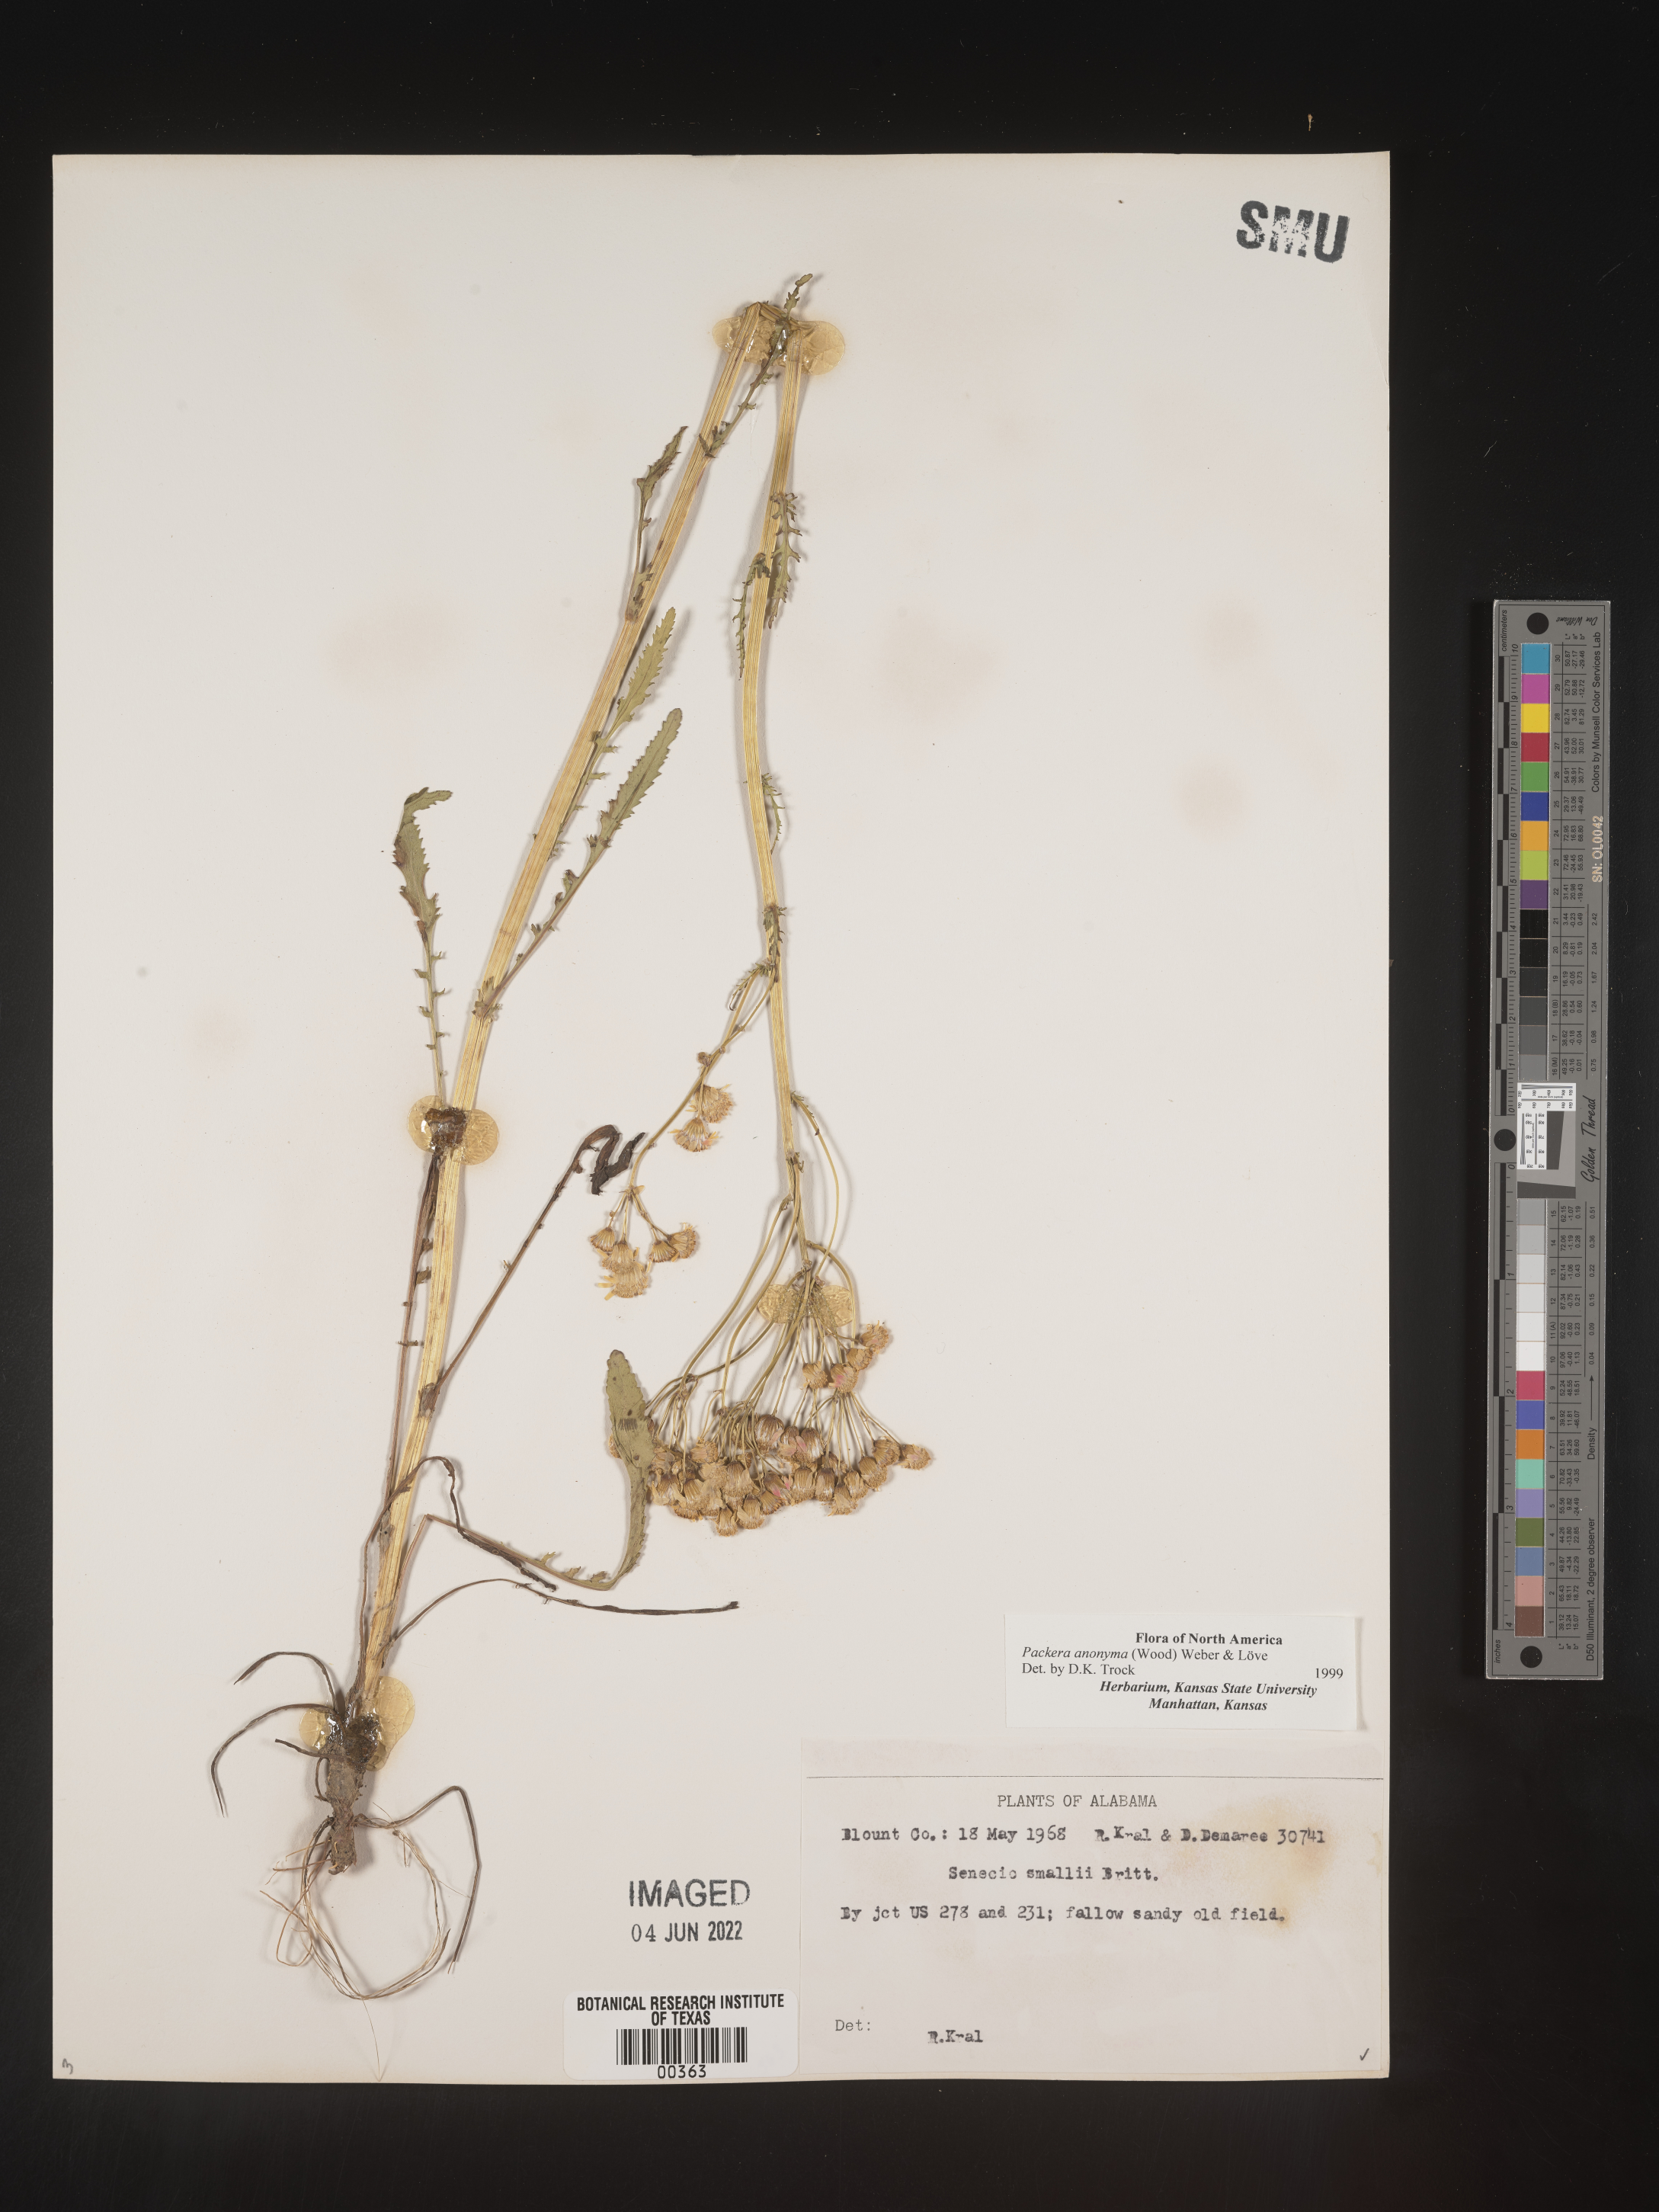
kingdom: Plantae
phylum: Tracheophyta
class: Magnoliopsida
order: Asterales
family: Asteraceae
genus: Packera
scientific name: Packera anonyma
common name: Small ragwort
